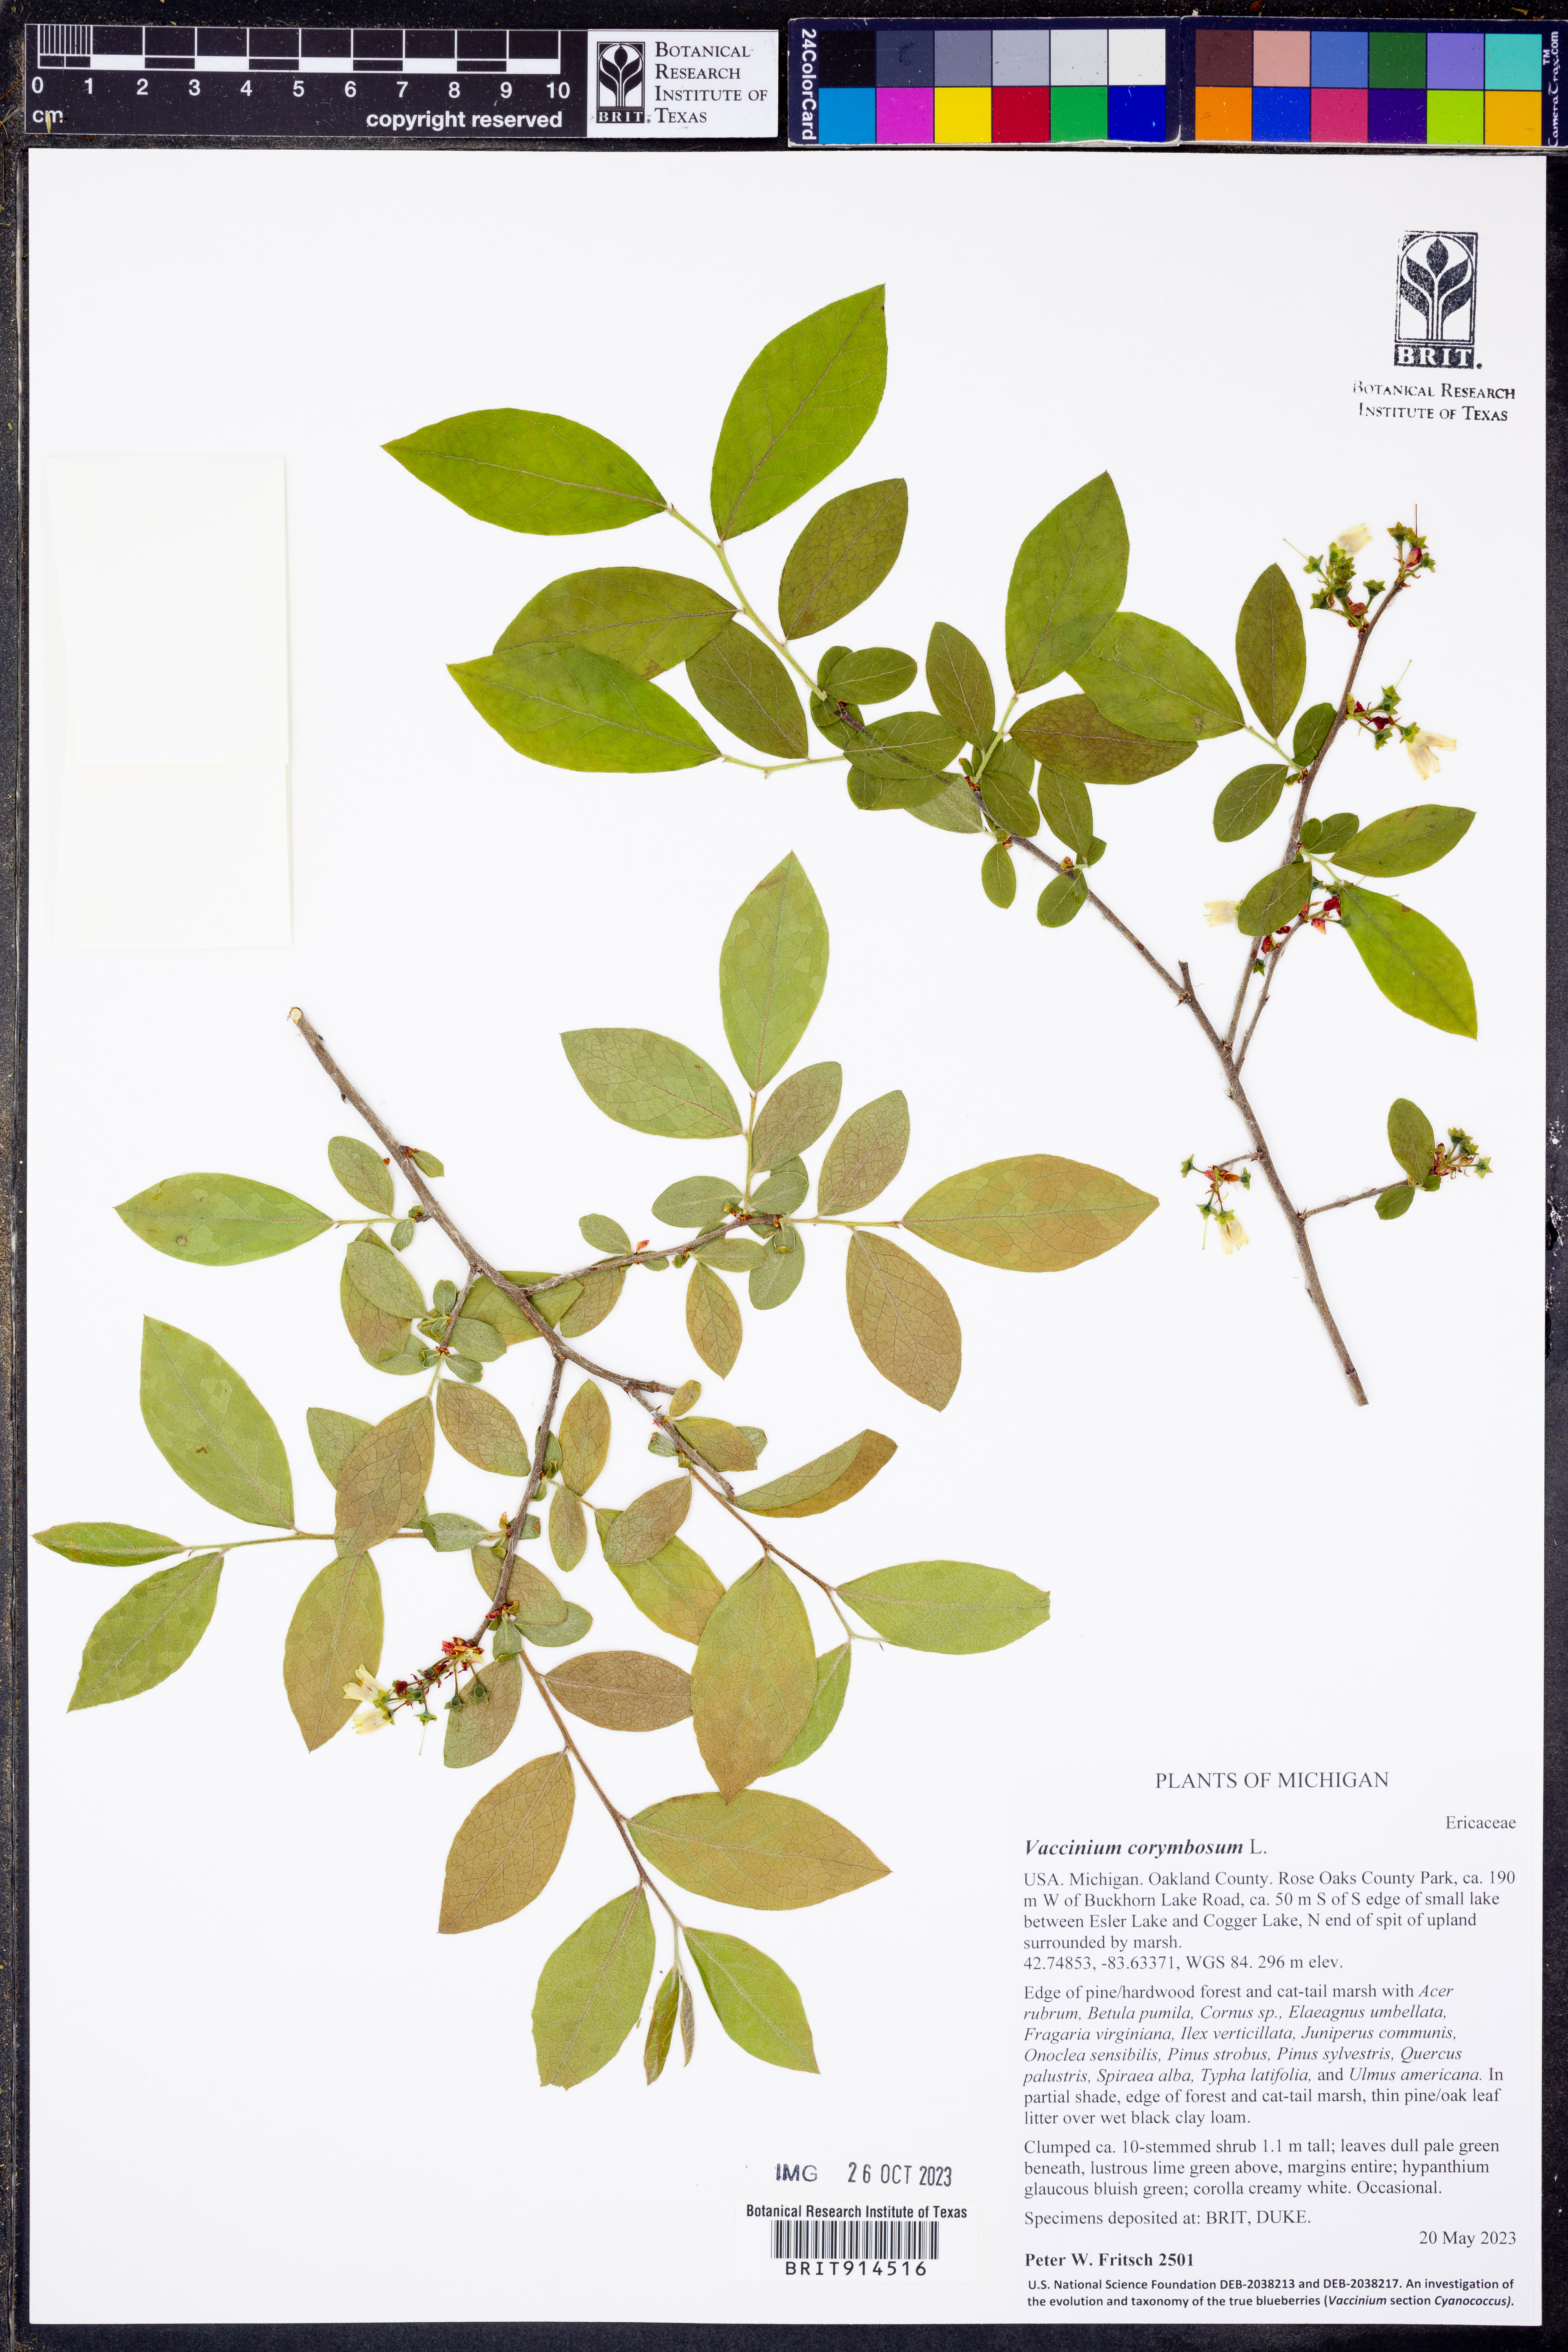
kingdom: Plantae
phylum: Tracheophyta
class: Magnoliopsida
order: Ericales
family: Ericaceae
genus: Vaccinium
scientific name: Vaccinium corymbosum
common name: Blueberry
